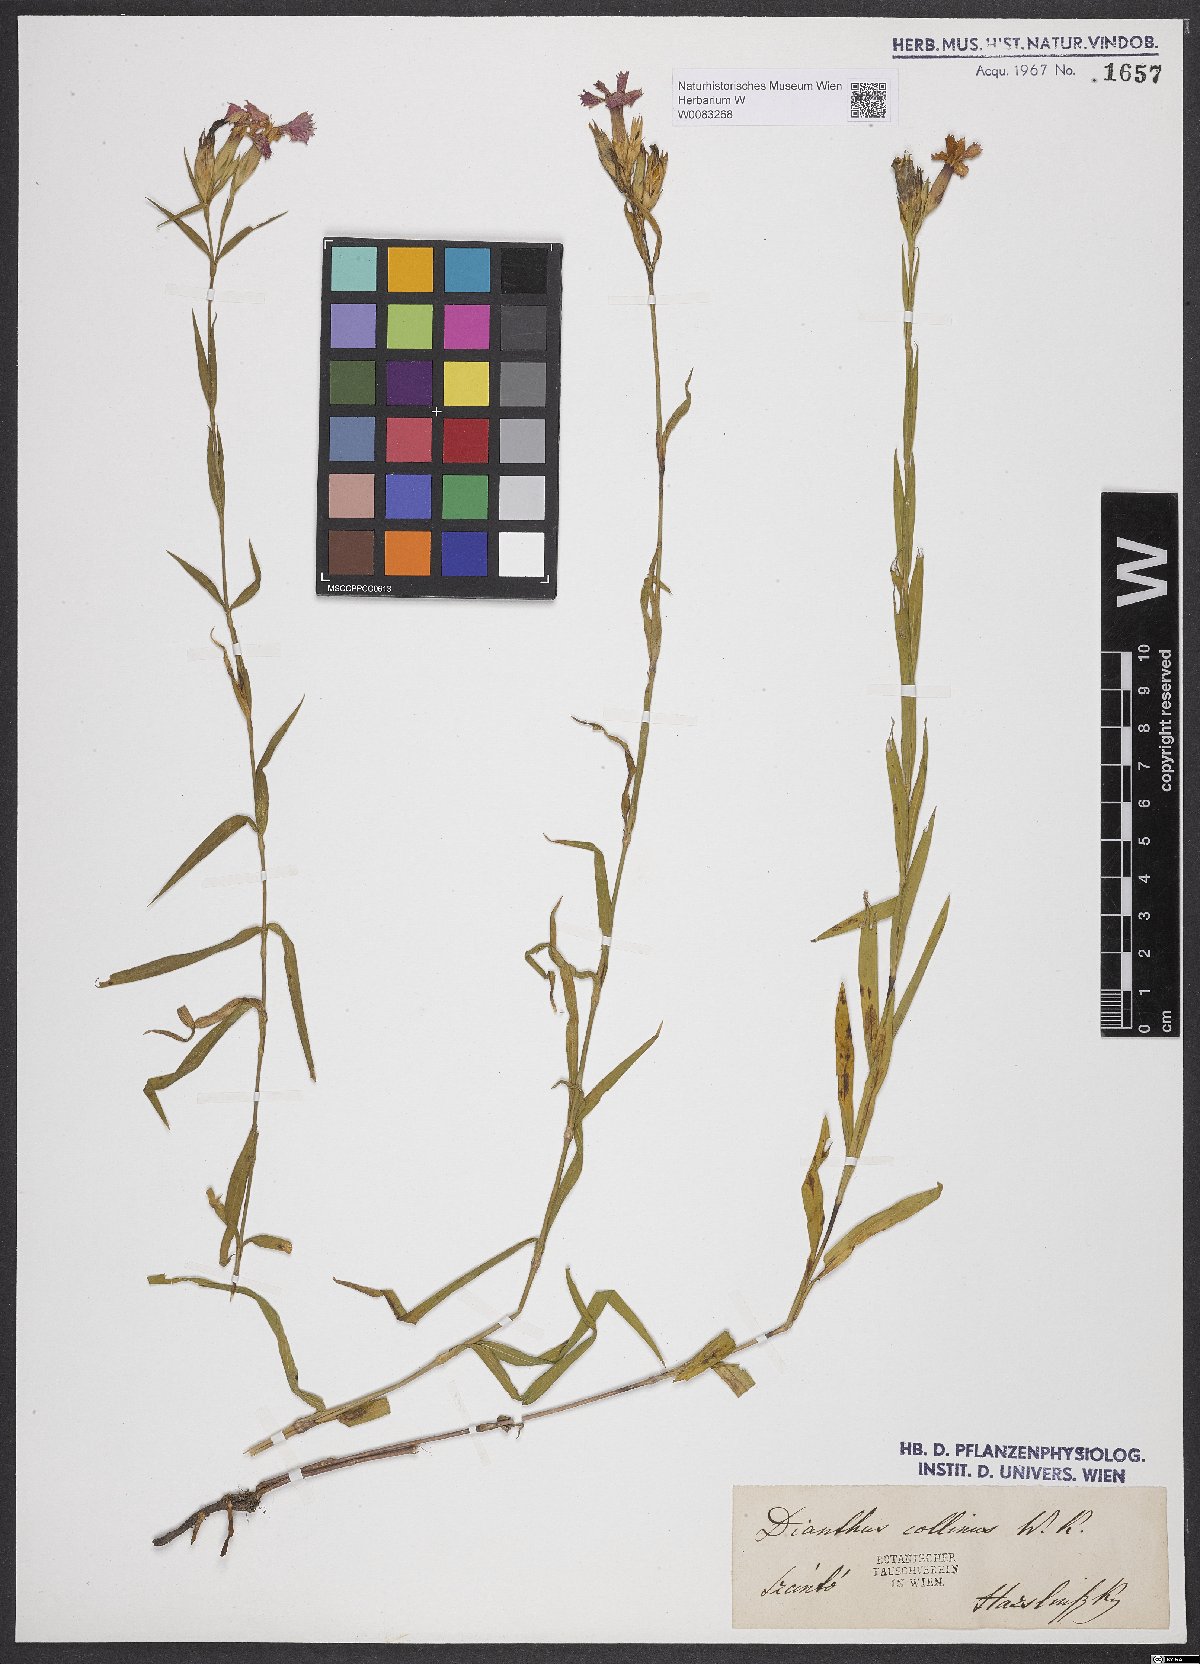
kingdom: Plantae
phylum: Tracheophyta
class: Magnoliopsida
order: Caryophyllales
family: Caryophyllaceae
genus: Dianthus
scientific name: Dianthus collinus
